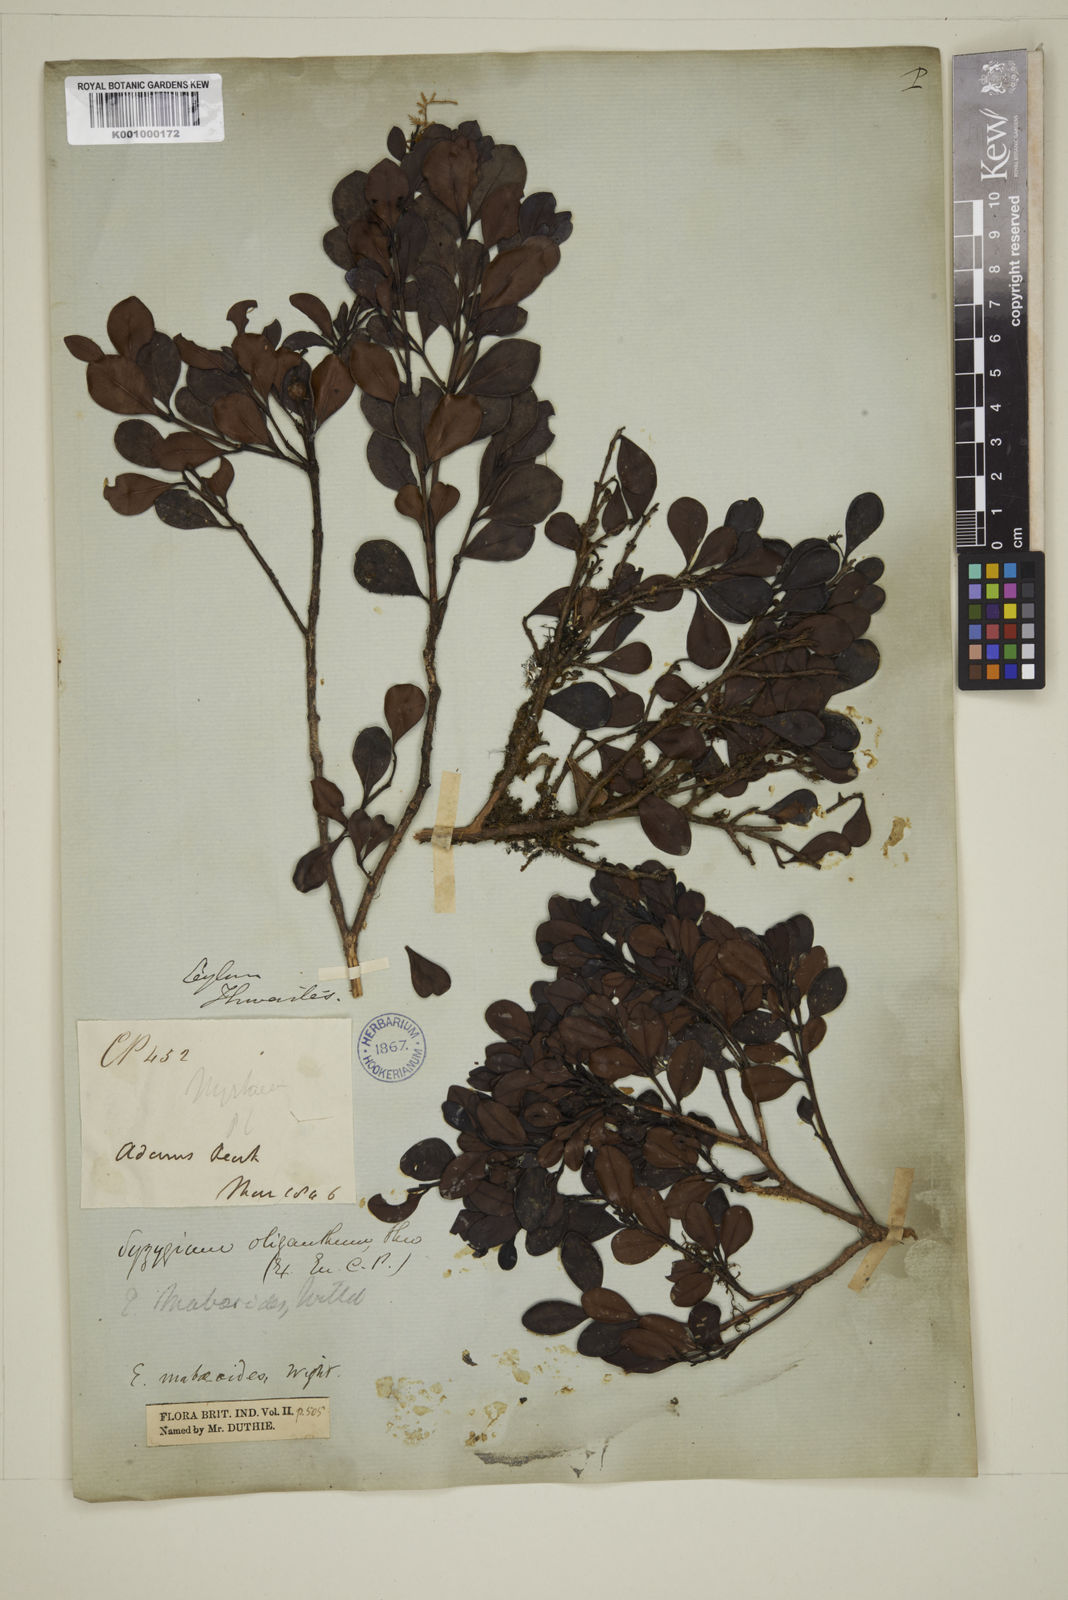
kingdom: Plantae
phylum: Tracheophyta
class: Magnoliopsida
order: Myrtales
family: Myrtaceae
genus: Eugenia
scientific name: Eugenia mabaeoides
